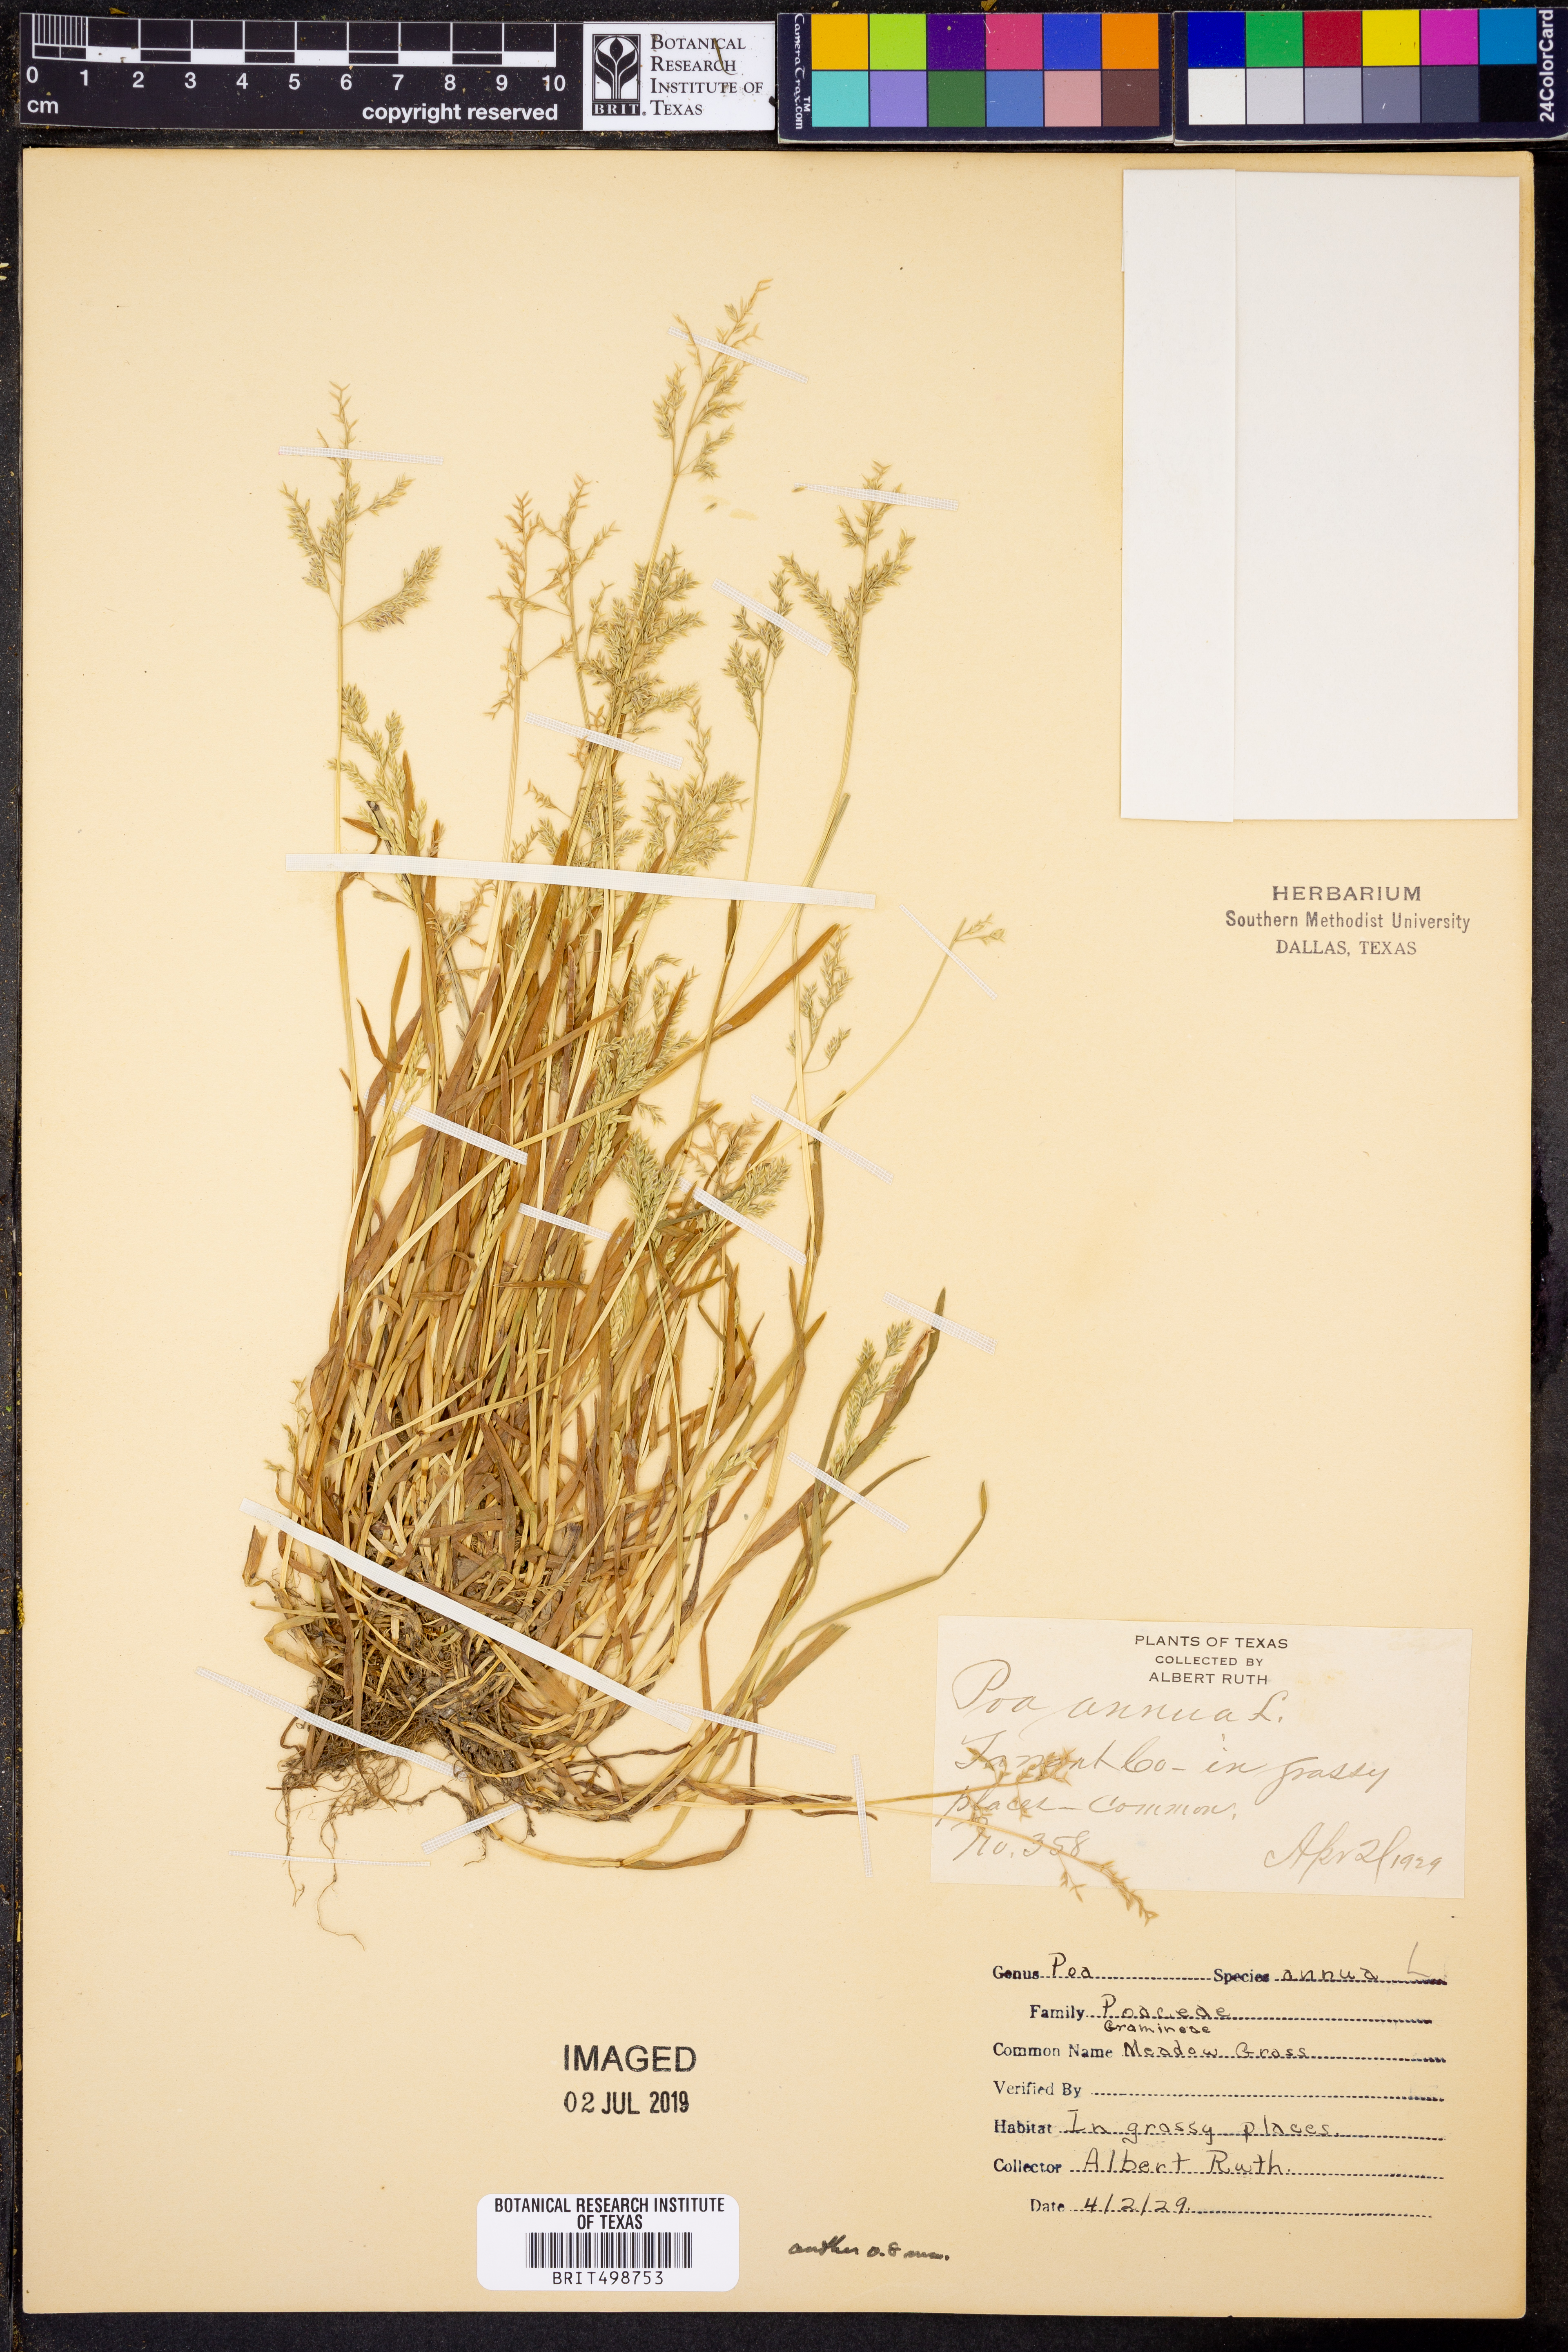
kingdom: Plantae
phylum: Tracheophyta
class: Liliopsida
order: Poales
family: Poaceae
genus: Poa
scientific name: Poa annua
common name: Annual bluegrass
